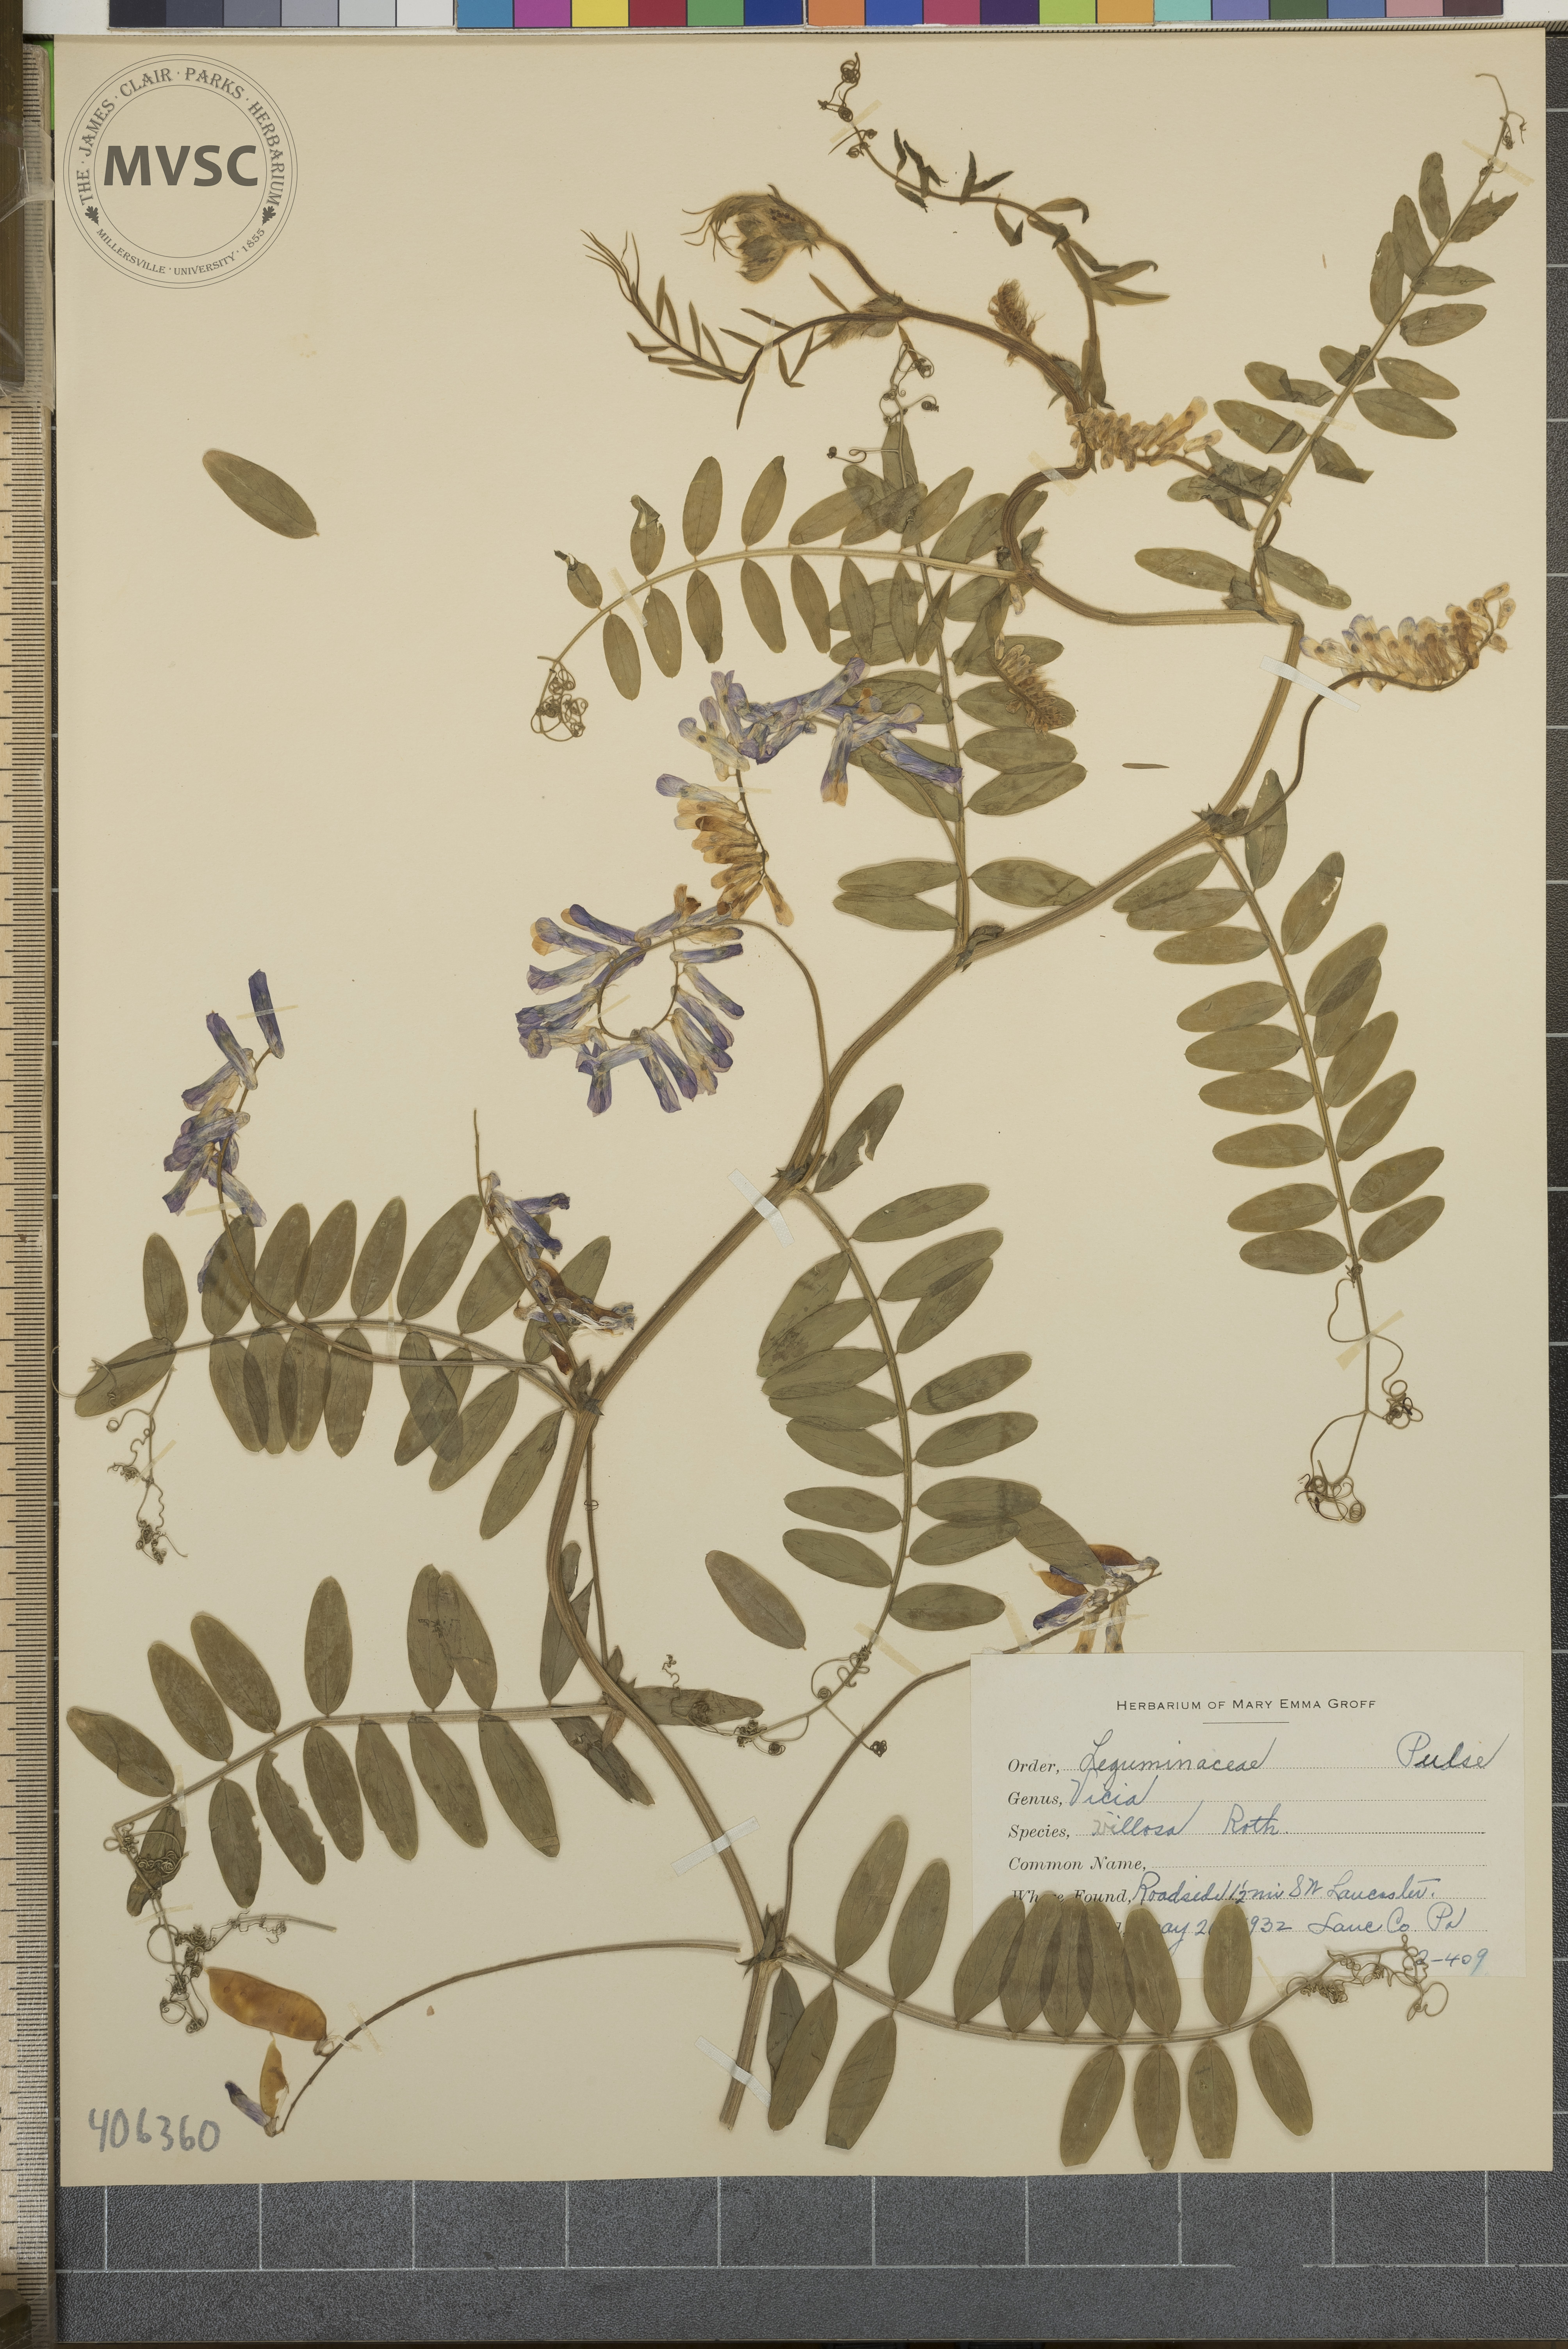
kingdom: Plantae
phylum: Tracheophyta
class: Magnoliopsida
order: Fabales
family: Fabaceae
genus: Vicia
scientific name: Vicia villosa
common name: Fodder vetch
